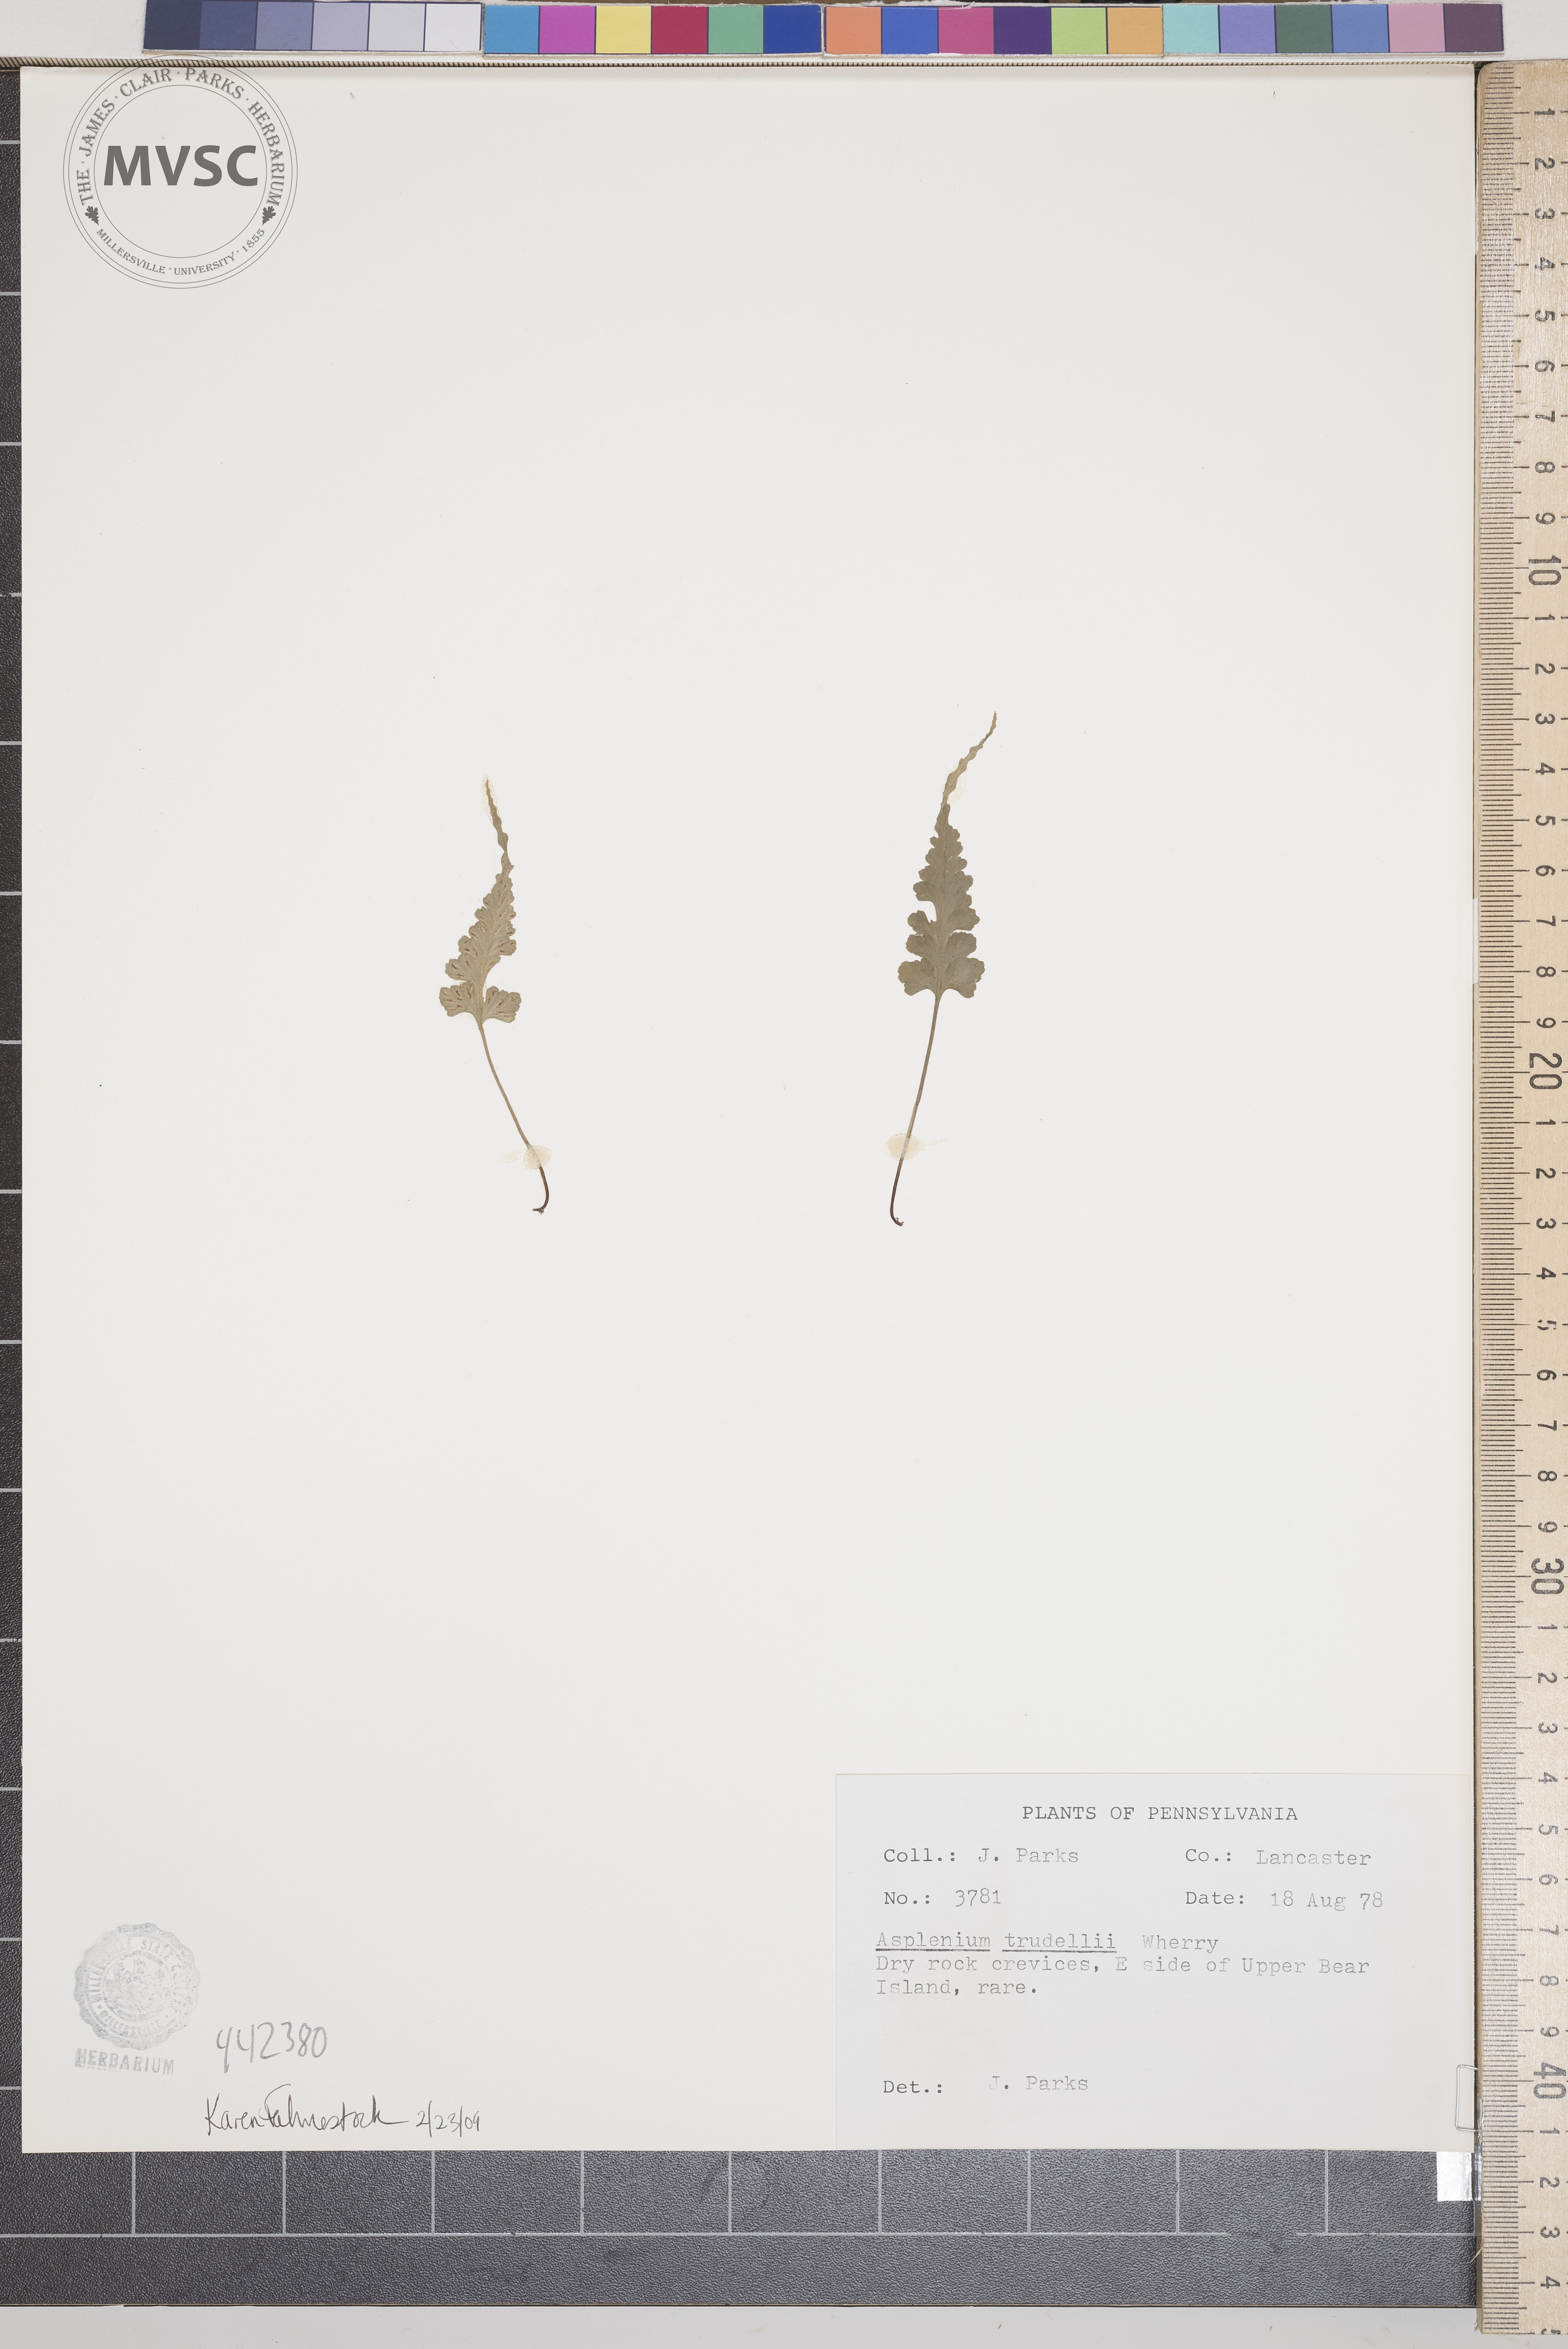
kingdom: Plantae
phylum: Tracheophyta
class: Polypodiopsida
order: Polypodiales
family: Aspleniaceae
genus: Asplenium
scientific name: Asplenium trudellii
